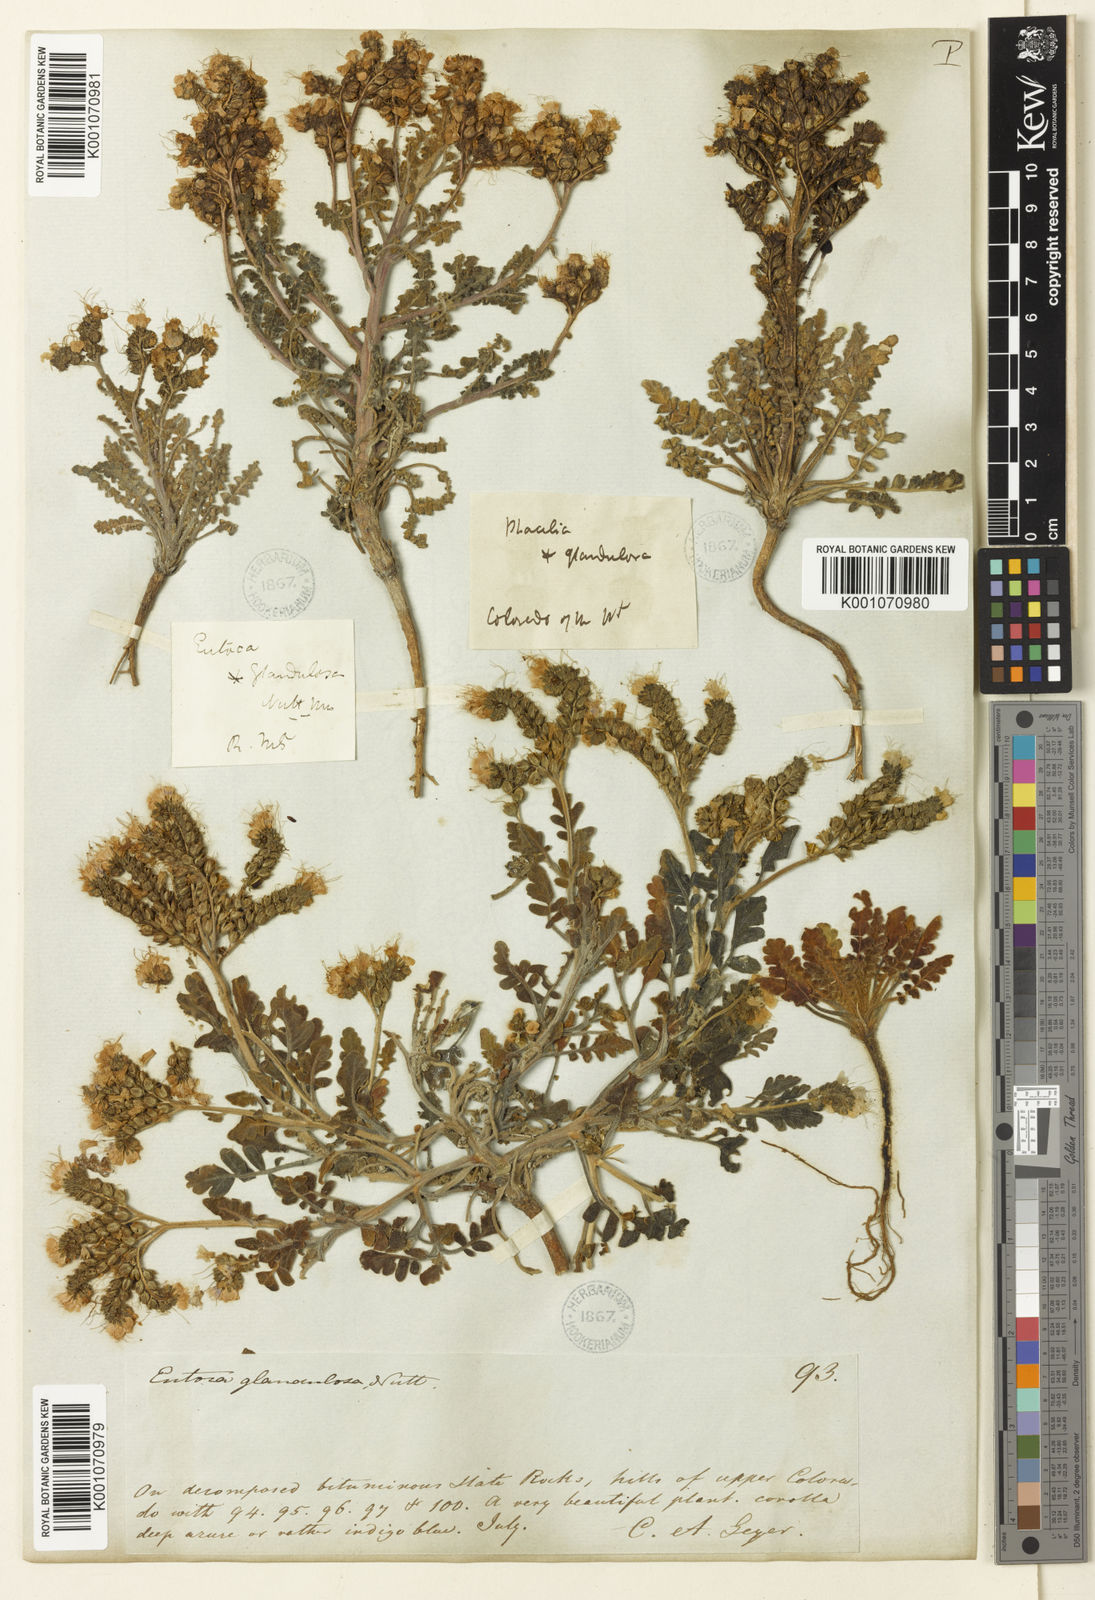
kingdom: Plantae
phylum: Tracheophyta
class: Magnoliopsida
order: Boraginales
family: Hydrophyllaceae
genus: Phacelia
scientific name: Phacelia
